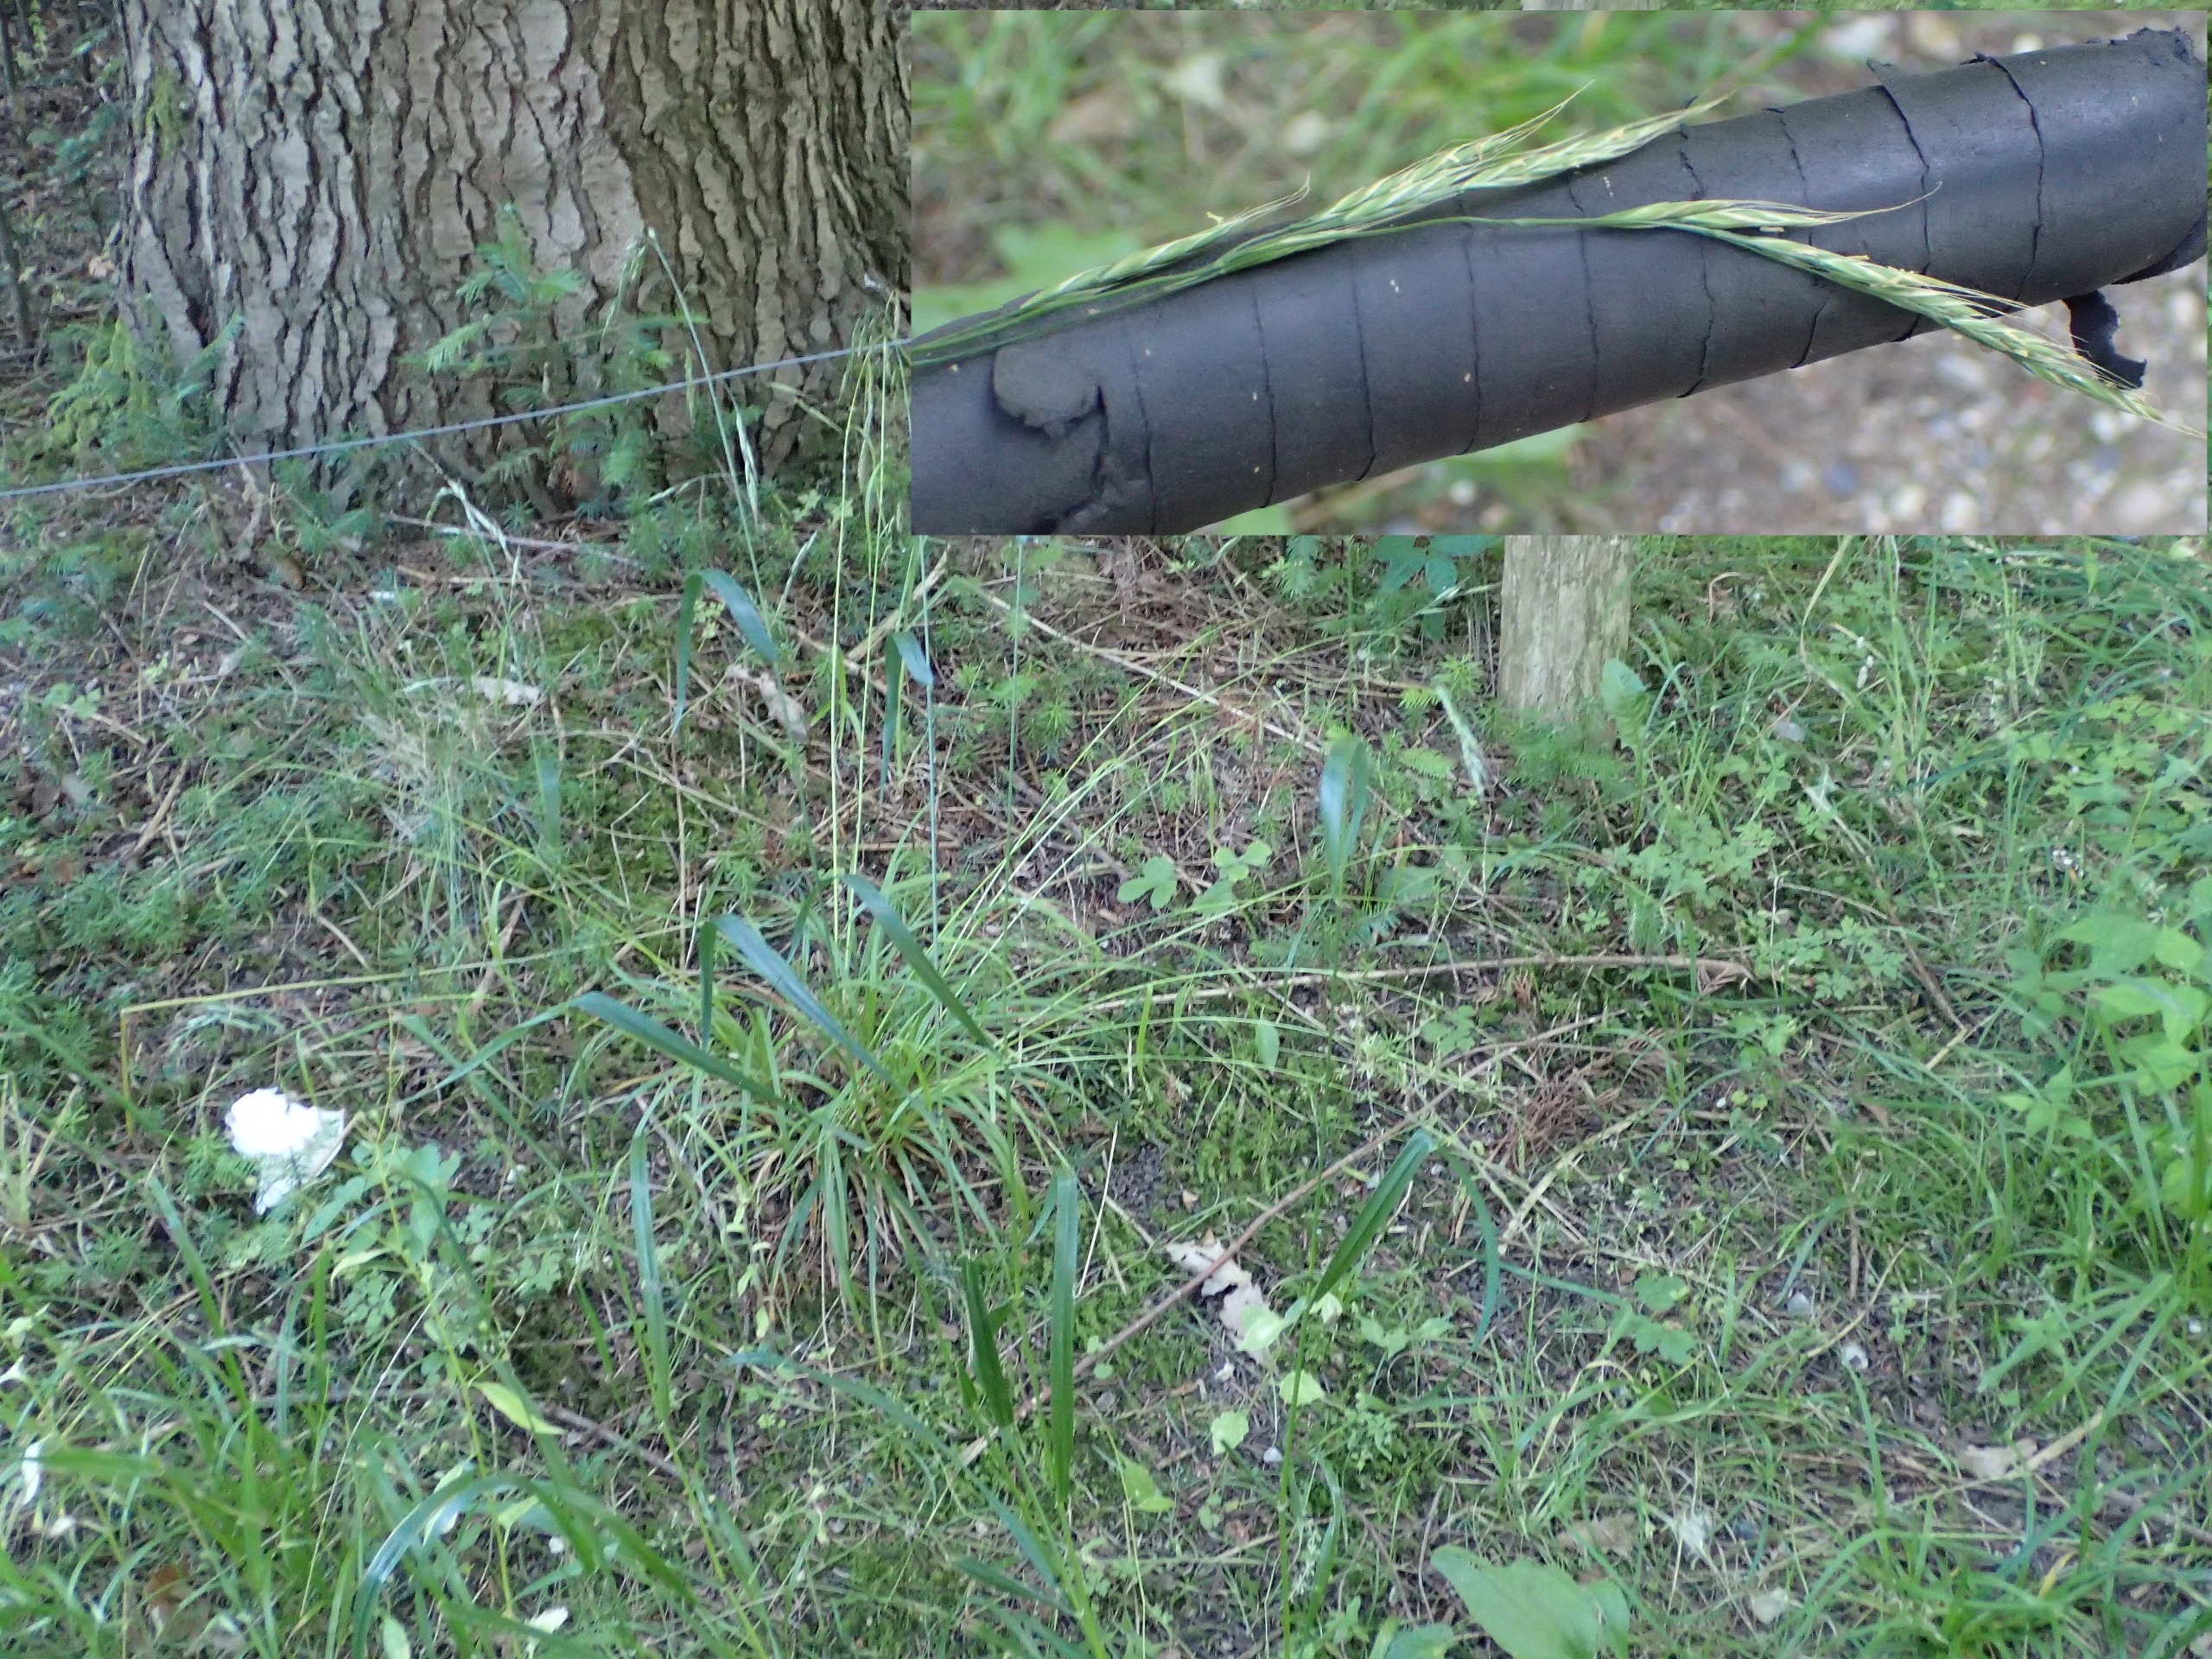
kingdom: Plantae
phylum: Tracheophyta
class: Liliopsida
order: Poales
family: Poaceae
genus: Lolium
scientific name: Lolium giganteum
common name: Kæmpe-svingel
